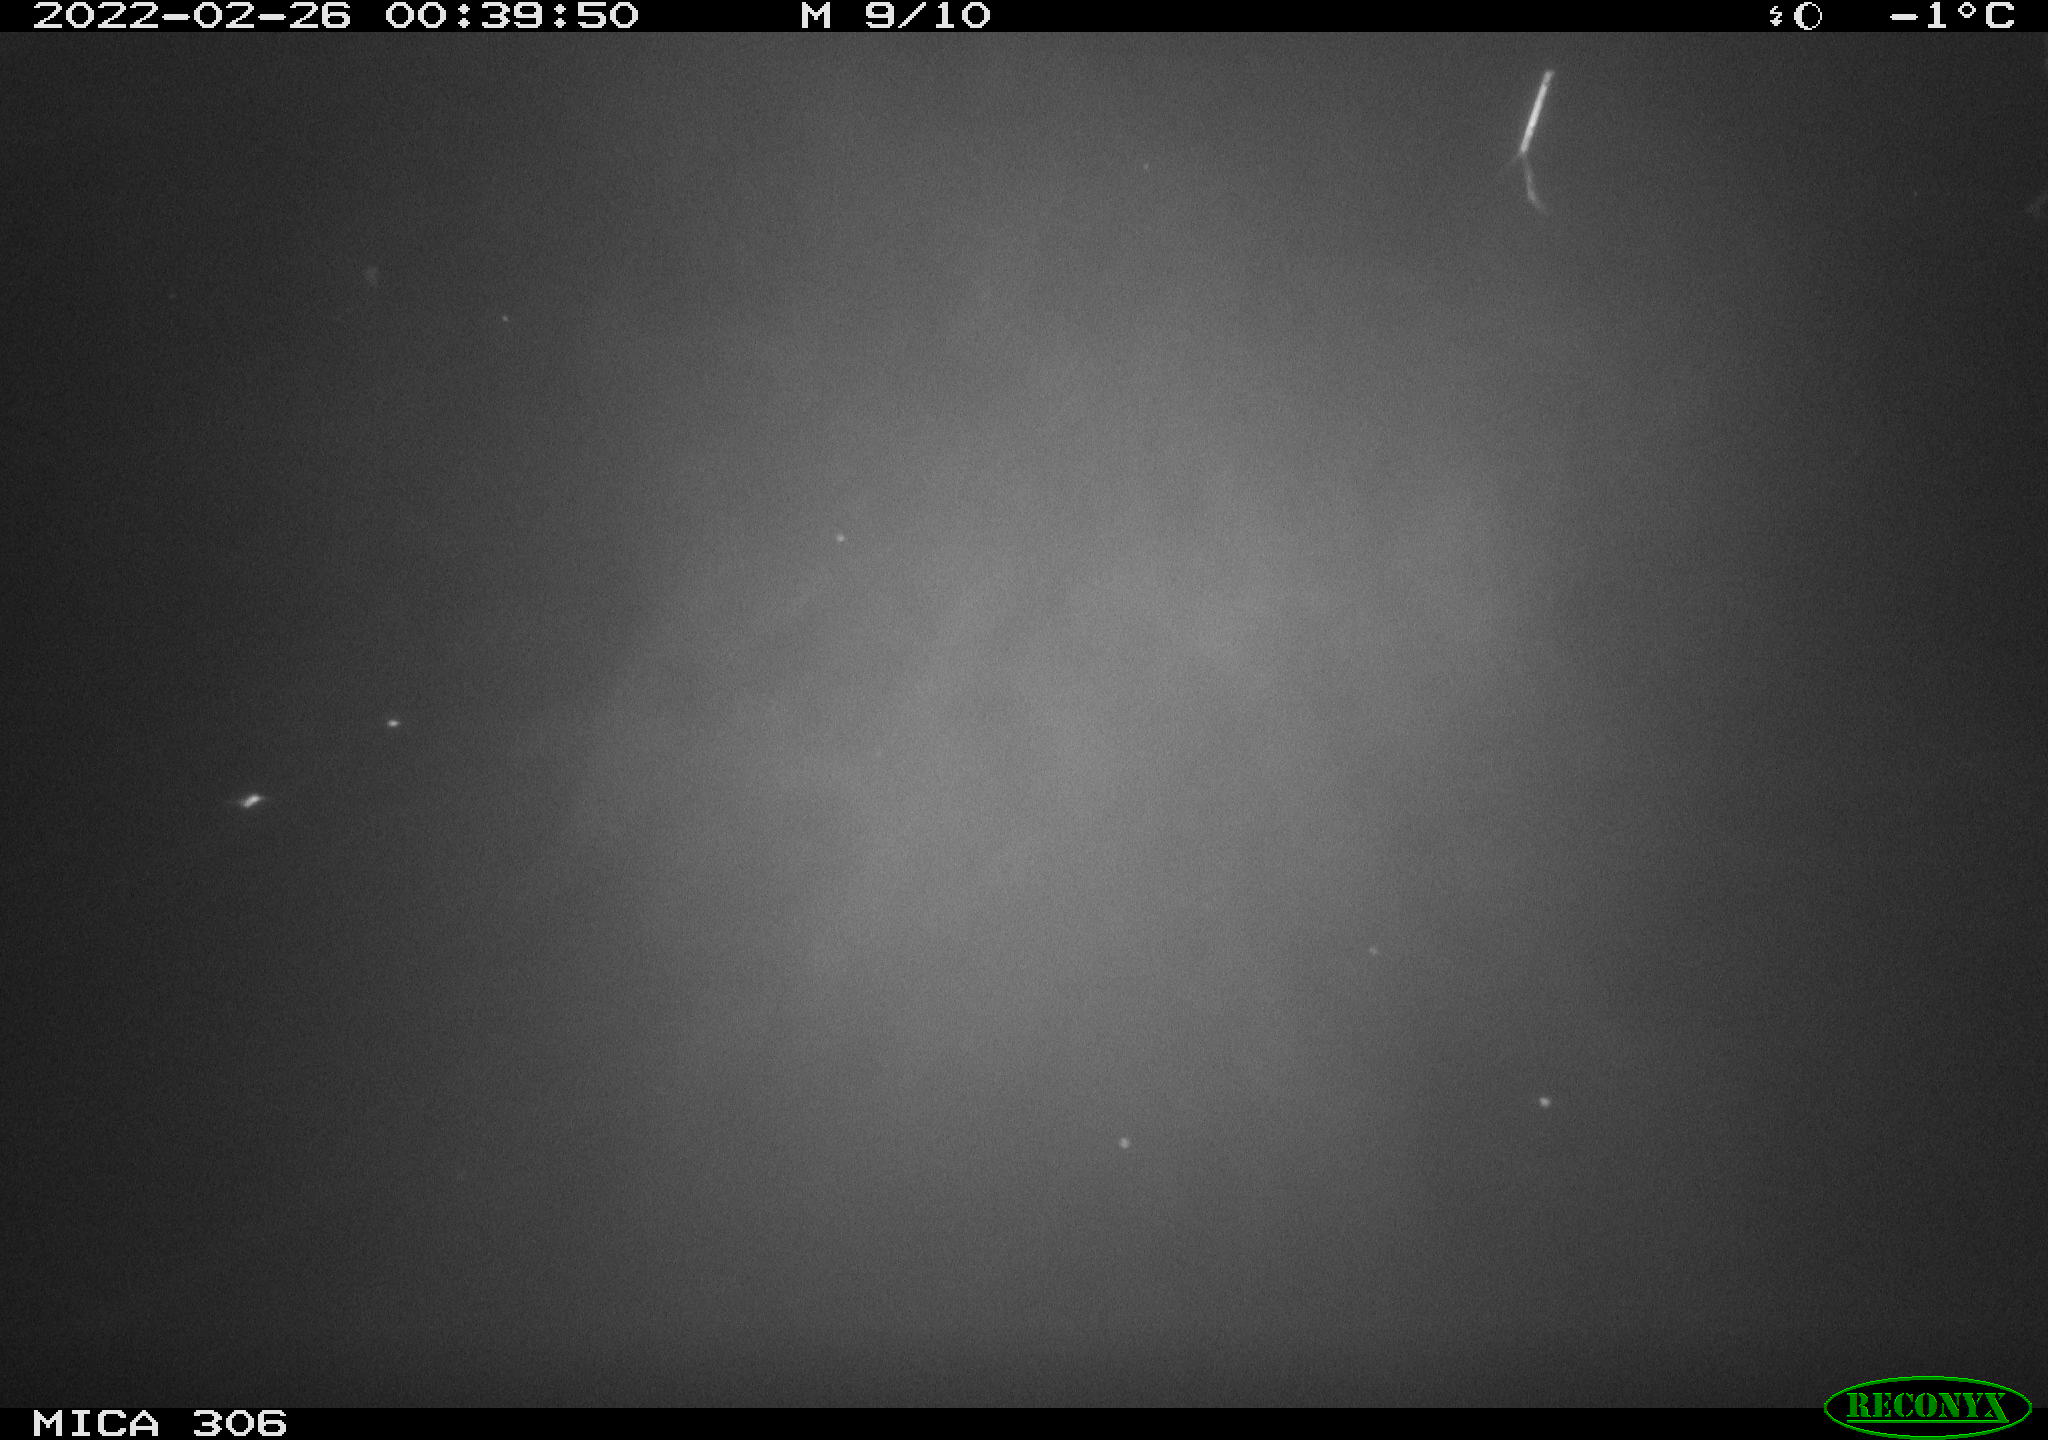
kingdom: Animalia
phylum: Chordata
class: Mammalia
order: Rodentia
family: Cricetidae
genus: Ondatra
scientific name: Ondatra zibethicus
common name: Muskrat
